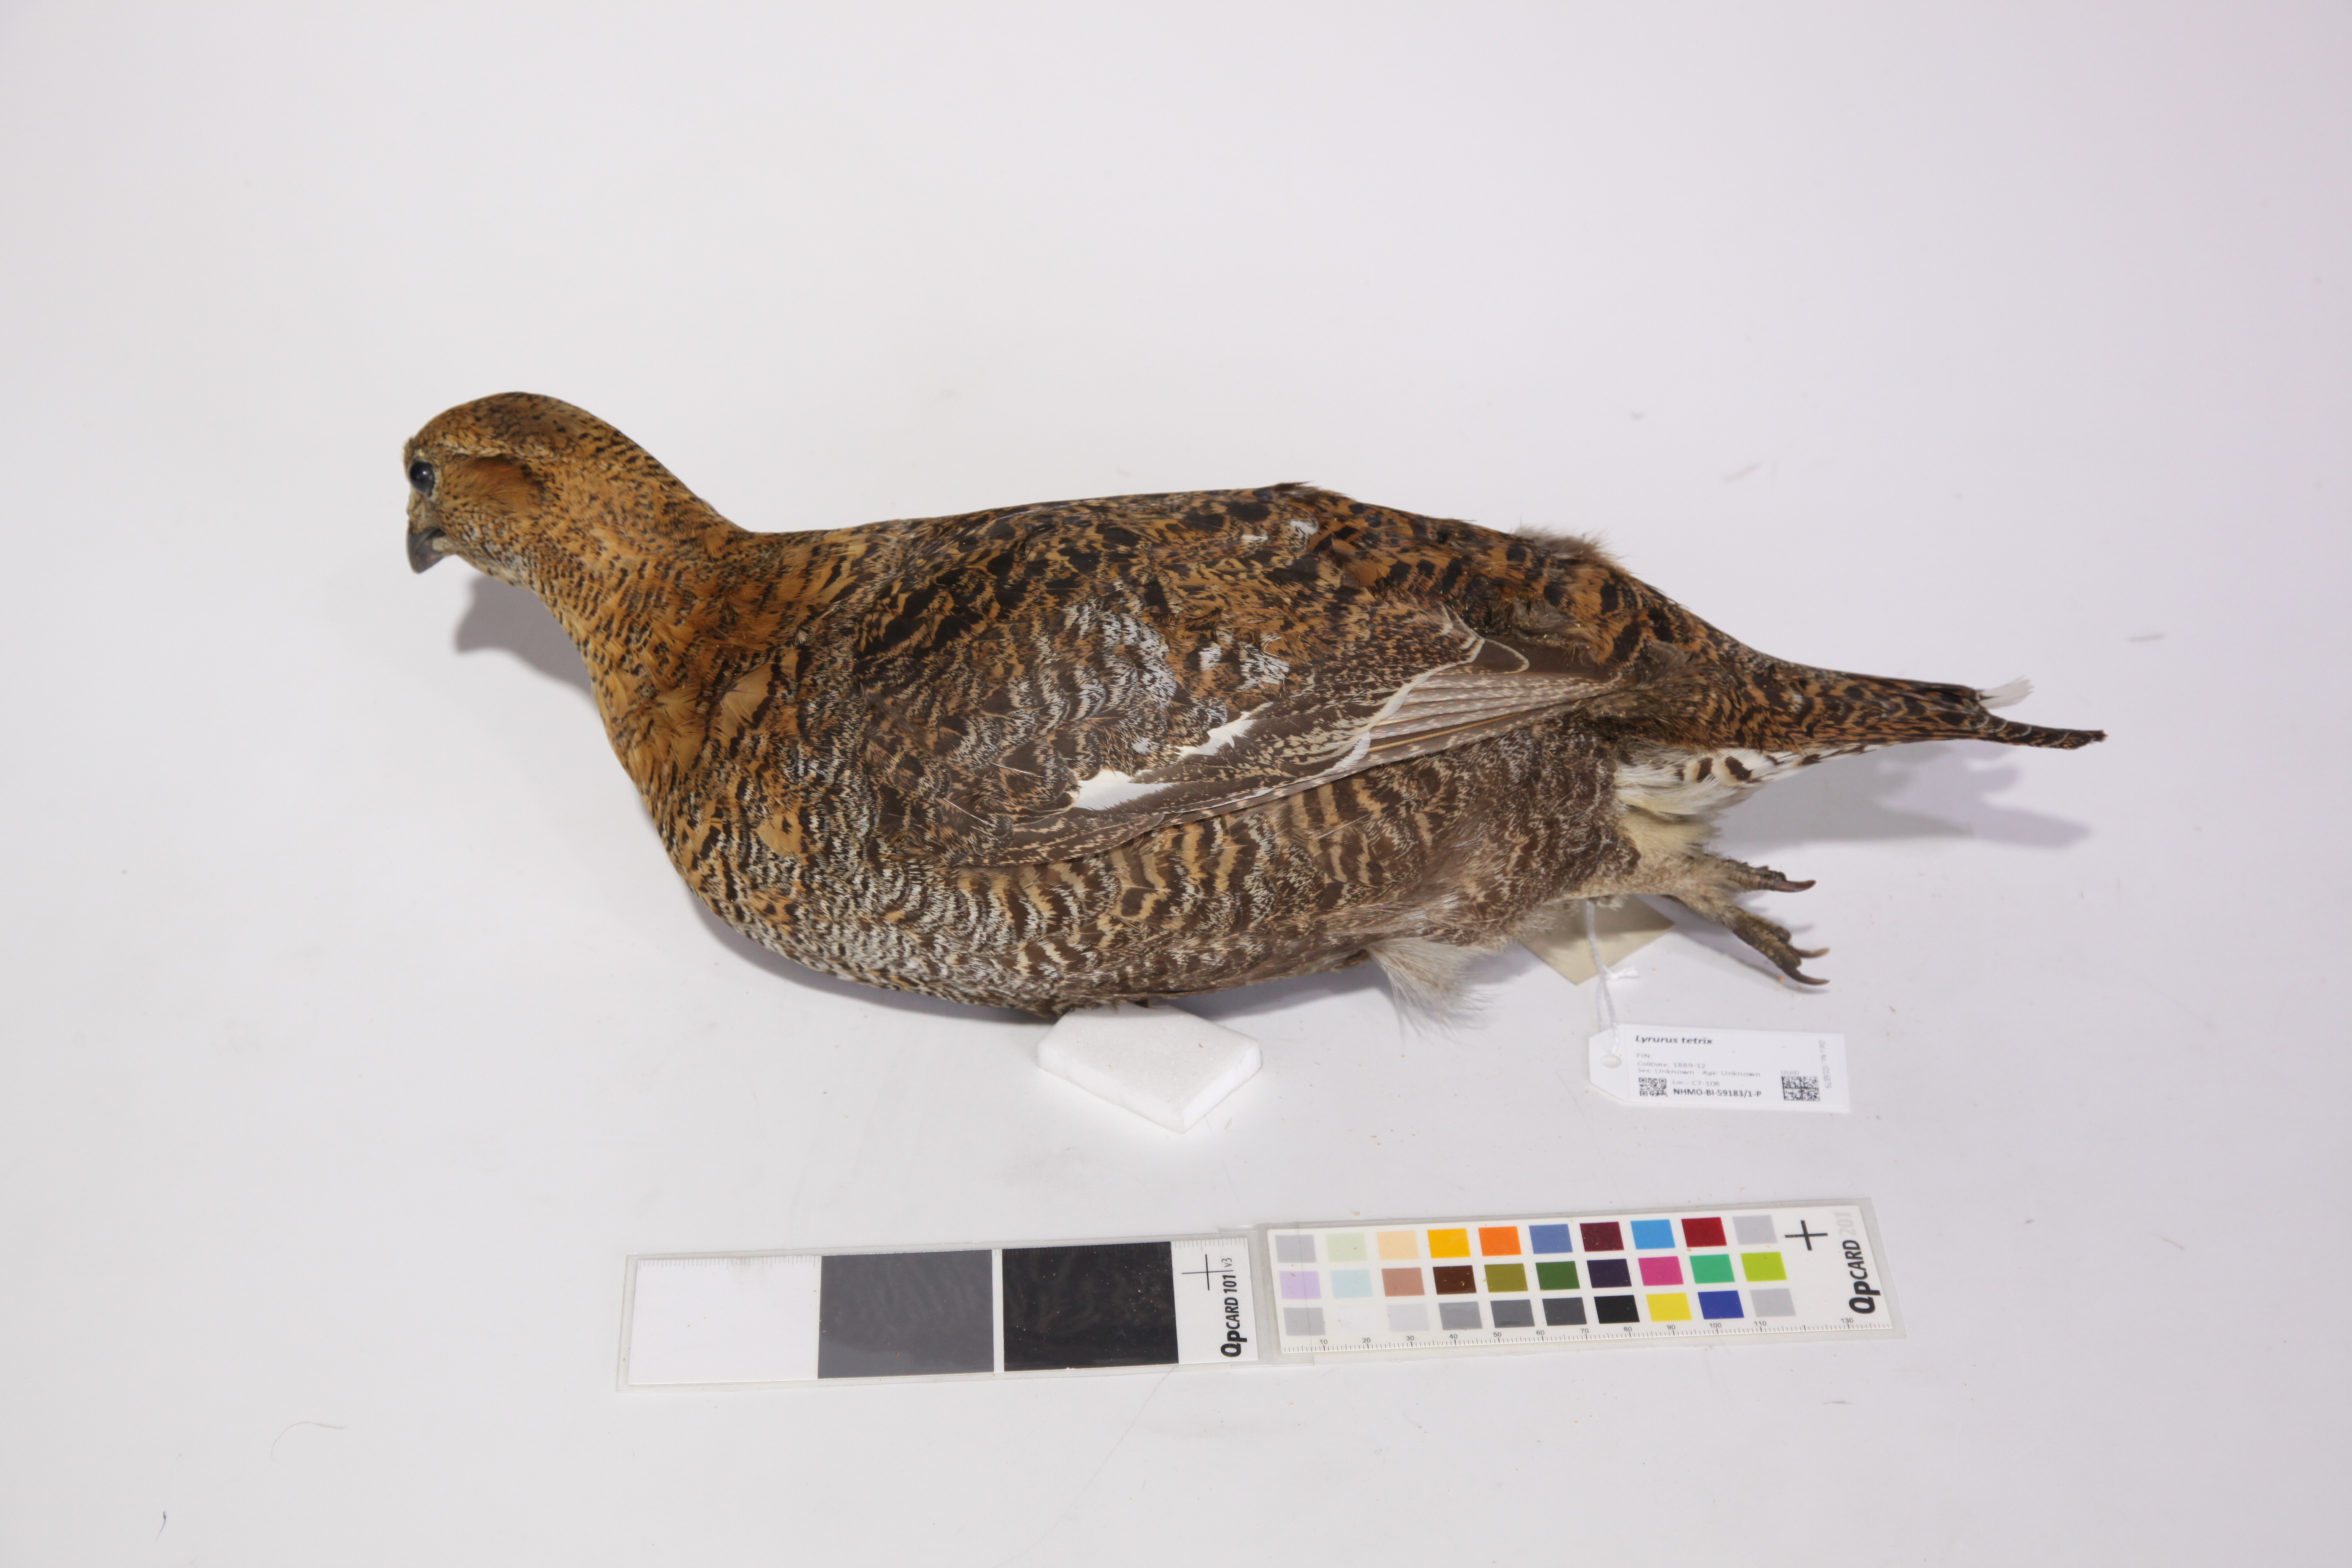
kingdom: Animalia
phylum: Chordata
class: Aves
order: Galliformes
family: Phasianidae
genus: Lyrurus
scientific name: Lyrurus tetrix
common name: Black grouse
